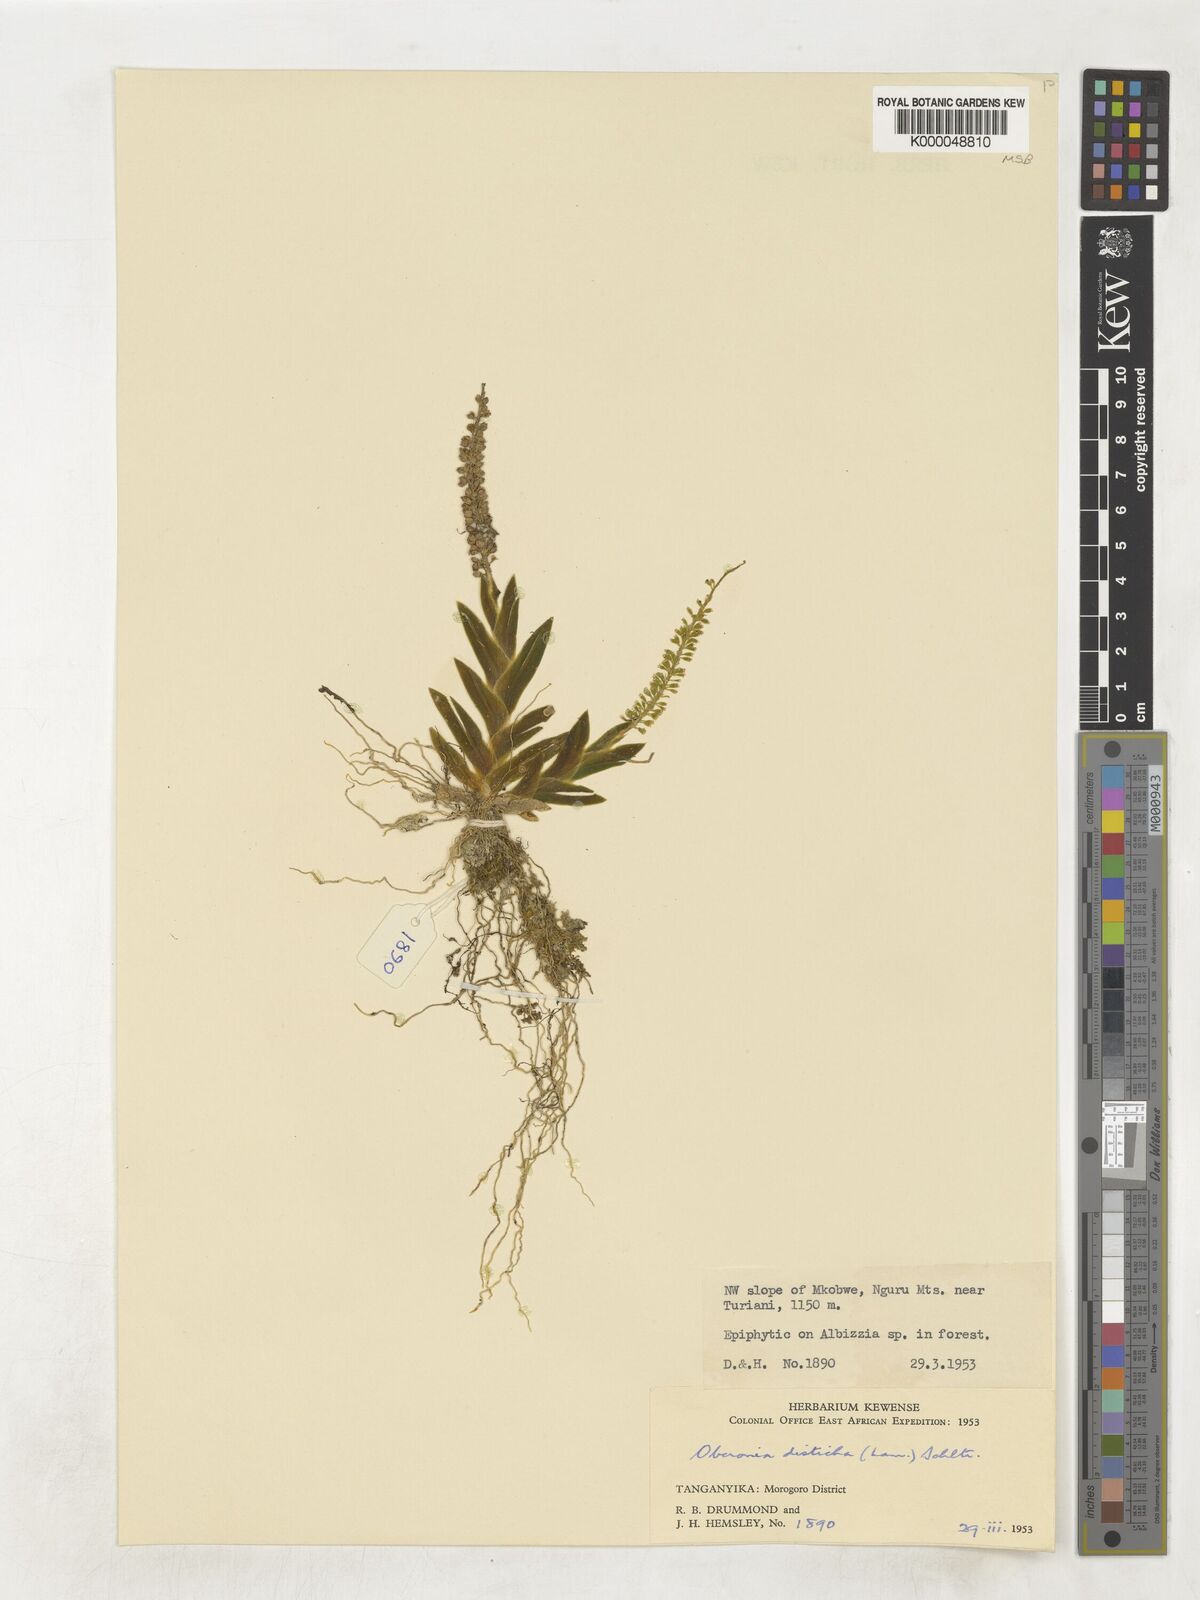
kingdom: Plantae
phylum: Tracheophyta
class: Liliopsida
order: Asparagales
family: Orchidaceae
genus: Oberonia
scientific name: Oberonia disticha
